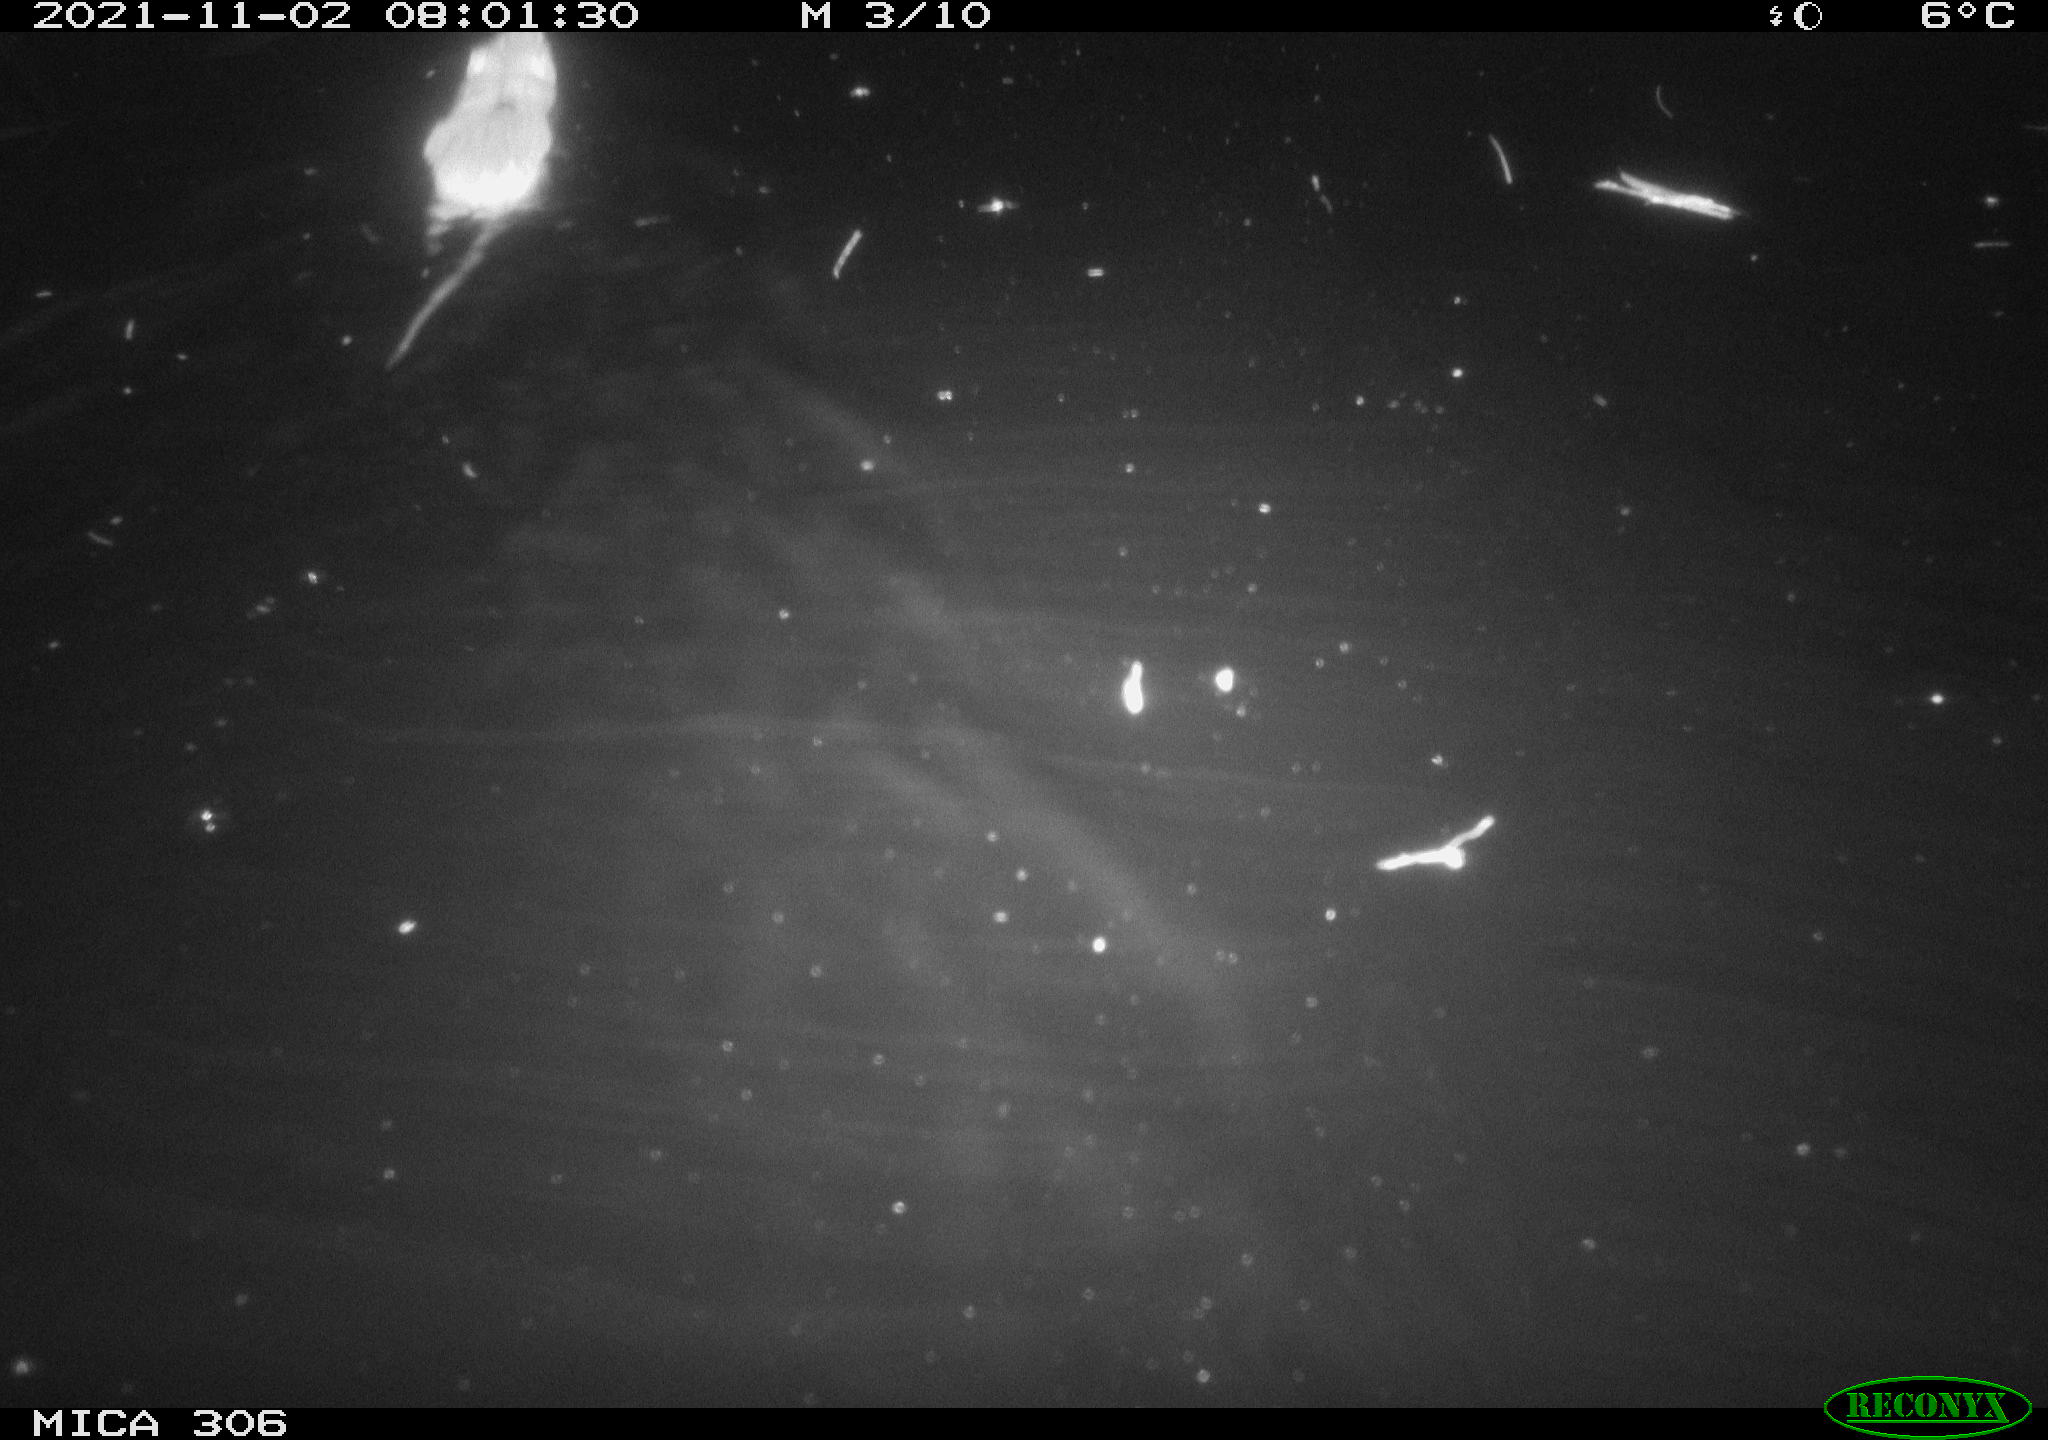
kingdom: Animalia
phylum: Chordata
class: Mammalia
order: Rodentia
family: Muridae
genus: Rattus
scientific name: Rattus norvegicus
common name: Brown rat
